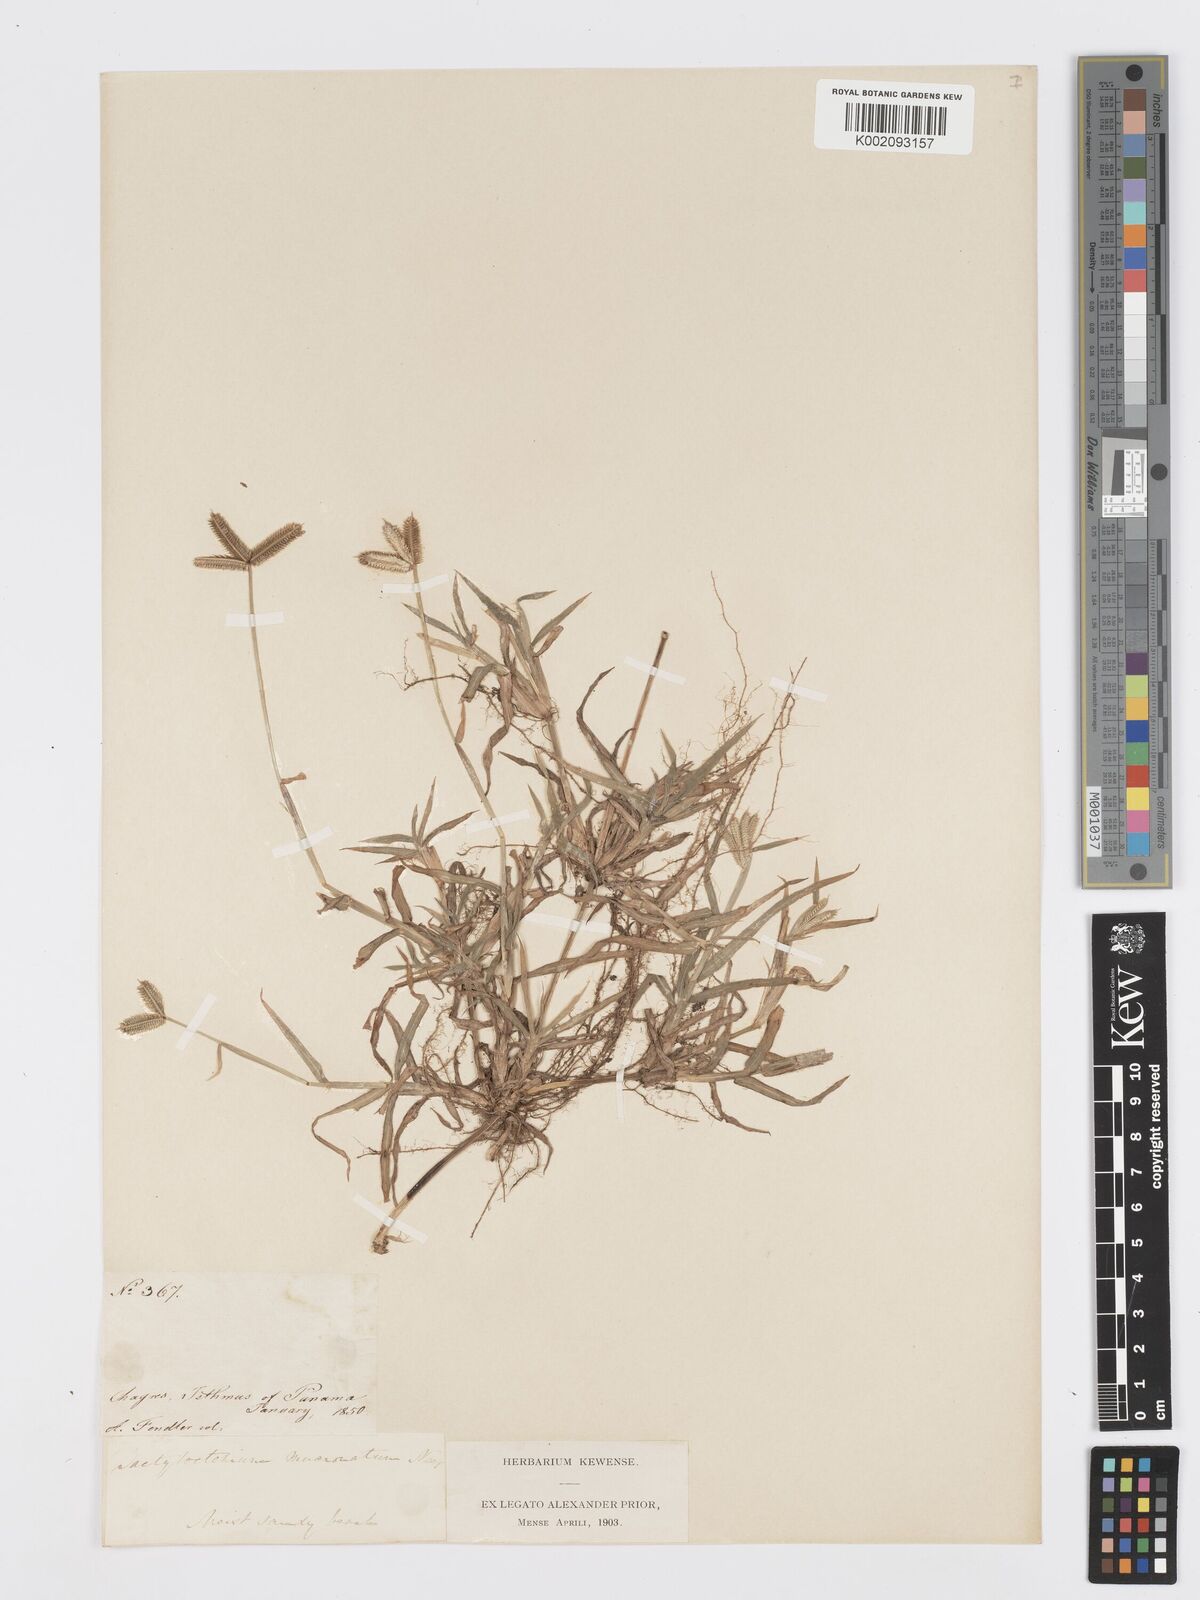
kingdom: Plantae
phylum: Tracheophyta
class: Liliopsida
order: Poales
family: Poaceae
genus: Dactyloctenium
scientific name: Dactyloctenium aegyptium
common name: Egyptian grass
